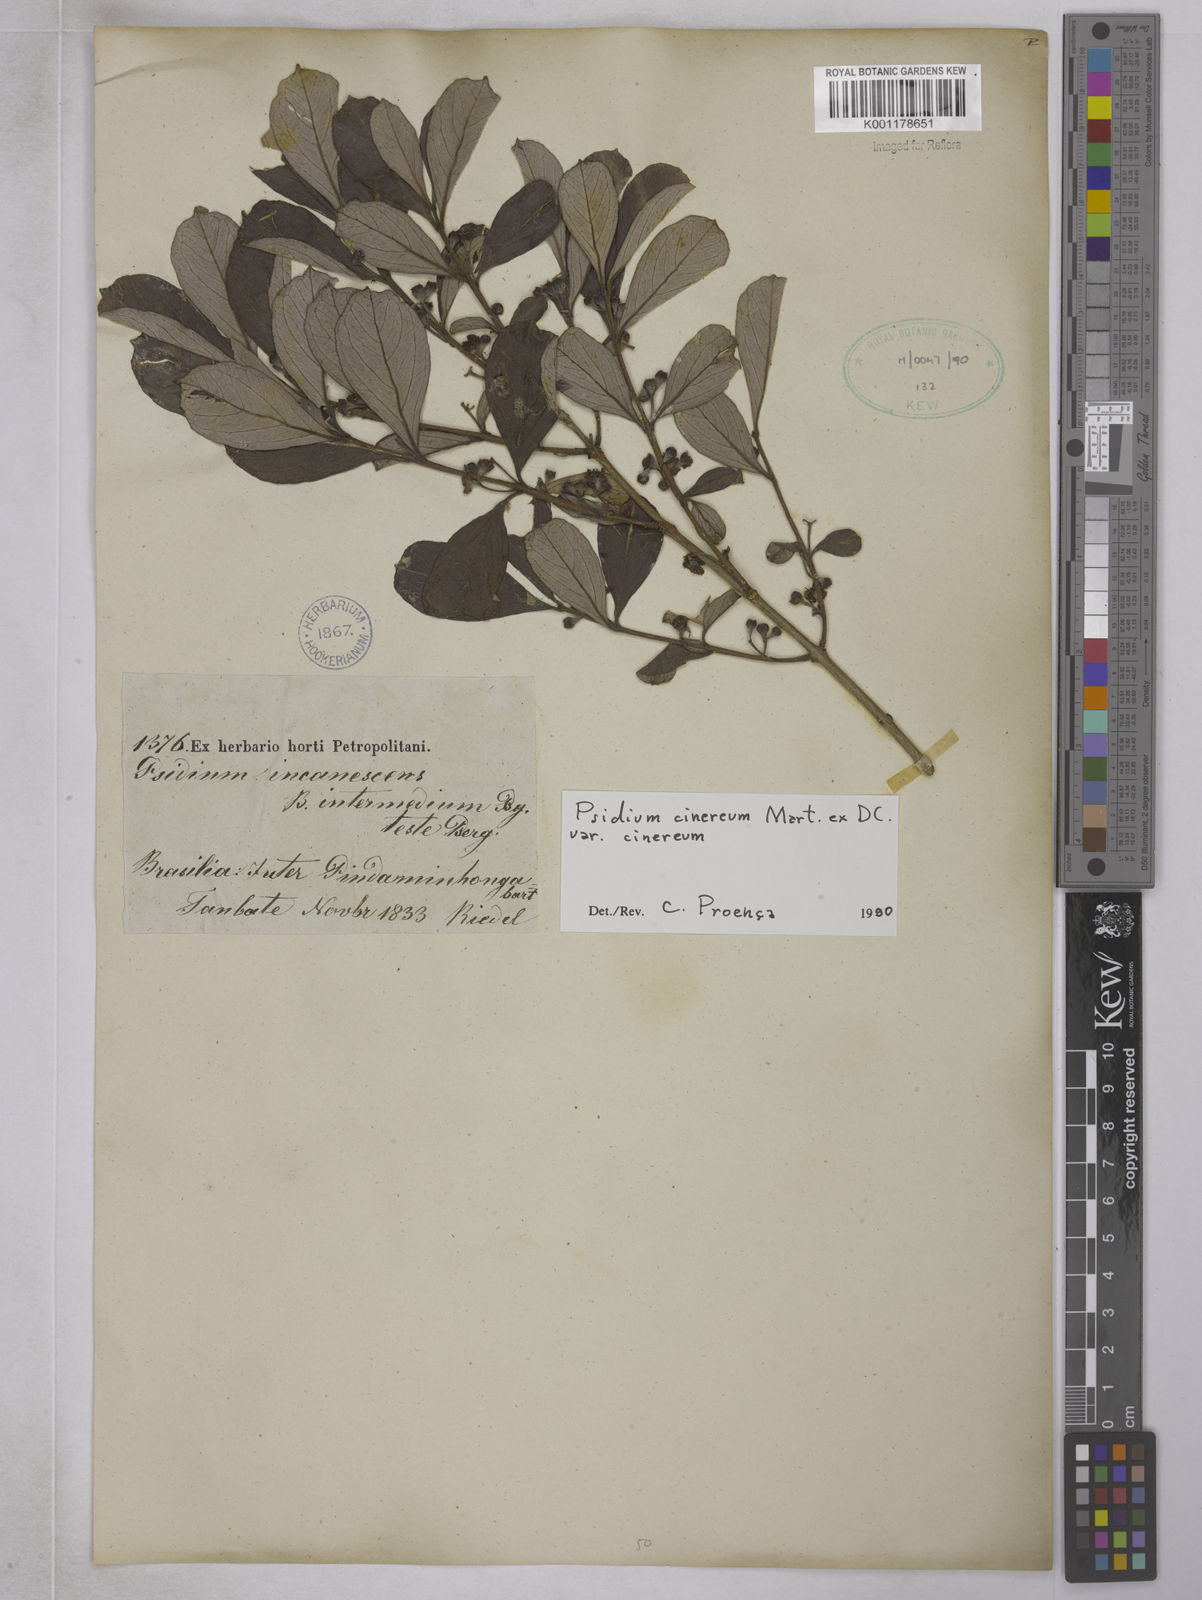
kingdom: Plantae
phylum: Tracheophyta
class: Magnoliopsida
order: Myrtales
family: Myrtaceae
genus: Psidium
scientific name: Psidium grandifolium
